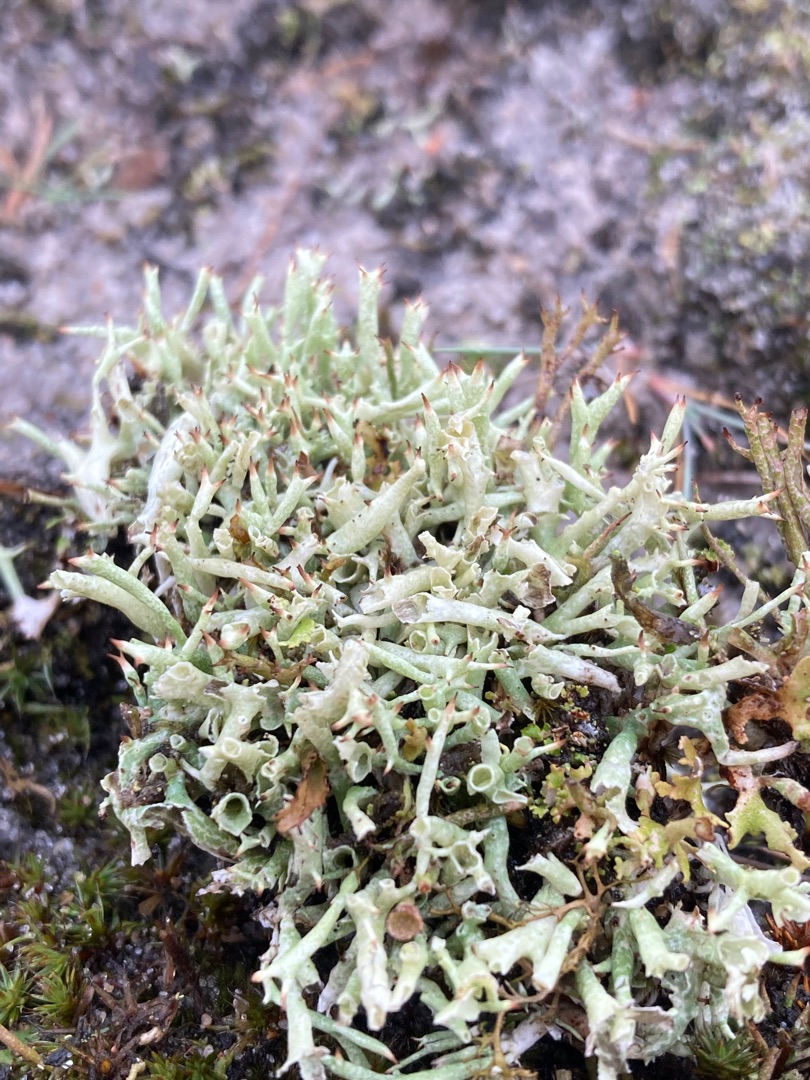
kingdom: Fungi
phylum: Ascomycota
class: Lecanoromycetes
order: Lecanorales
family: Cladoniaceae
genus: Cladonia
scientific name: Cladonia uncialis
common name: Pigget bægerlav
